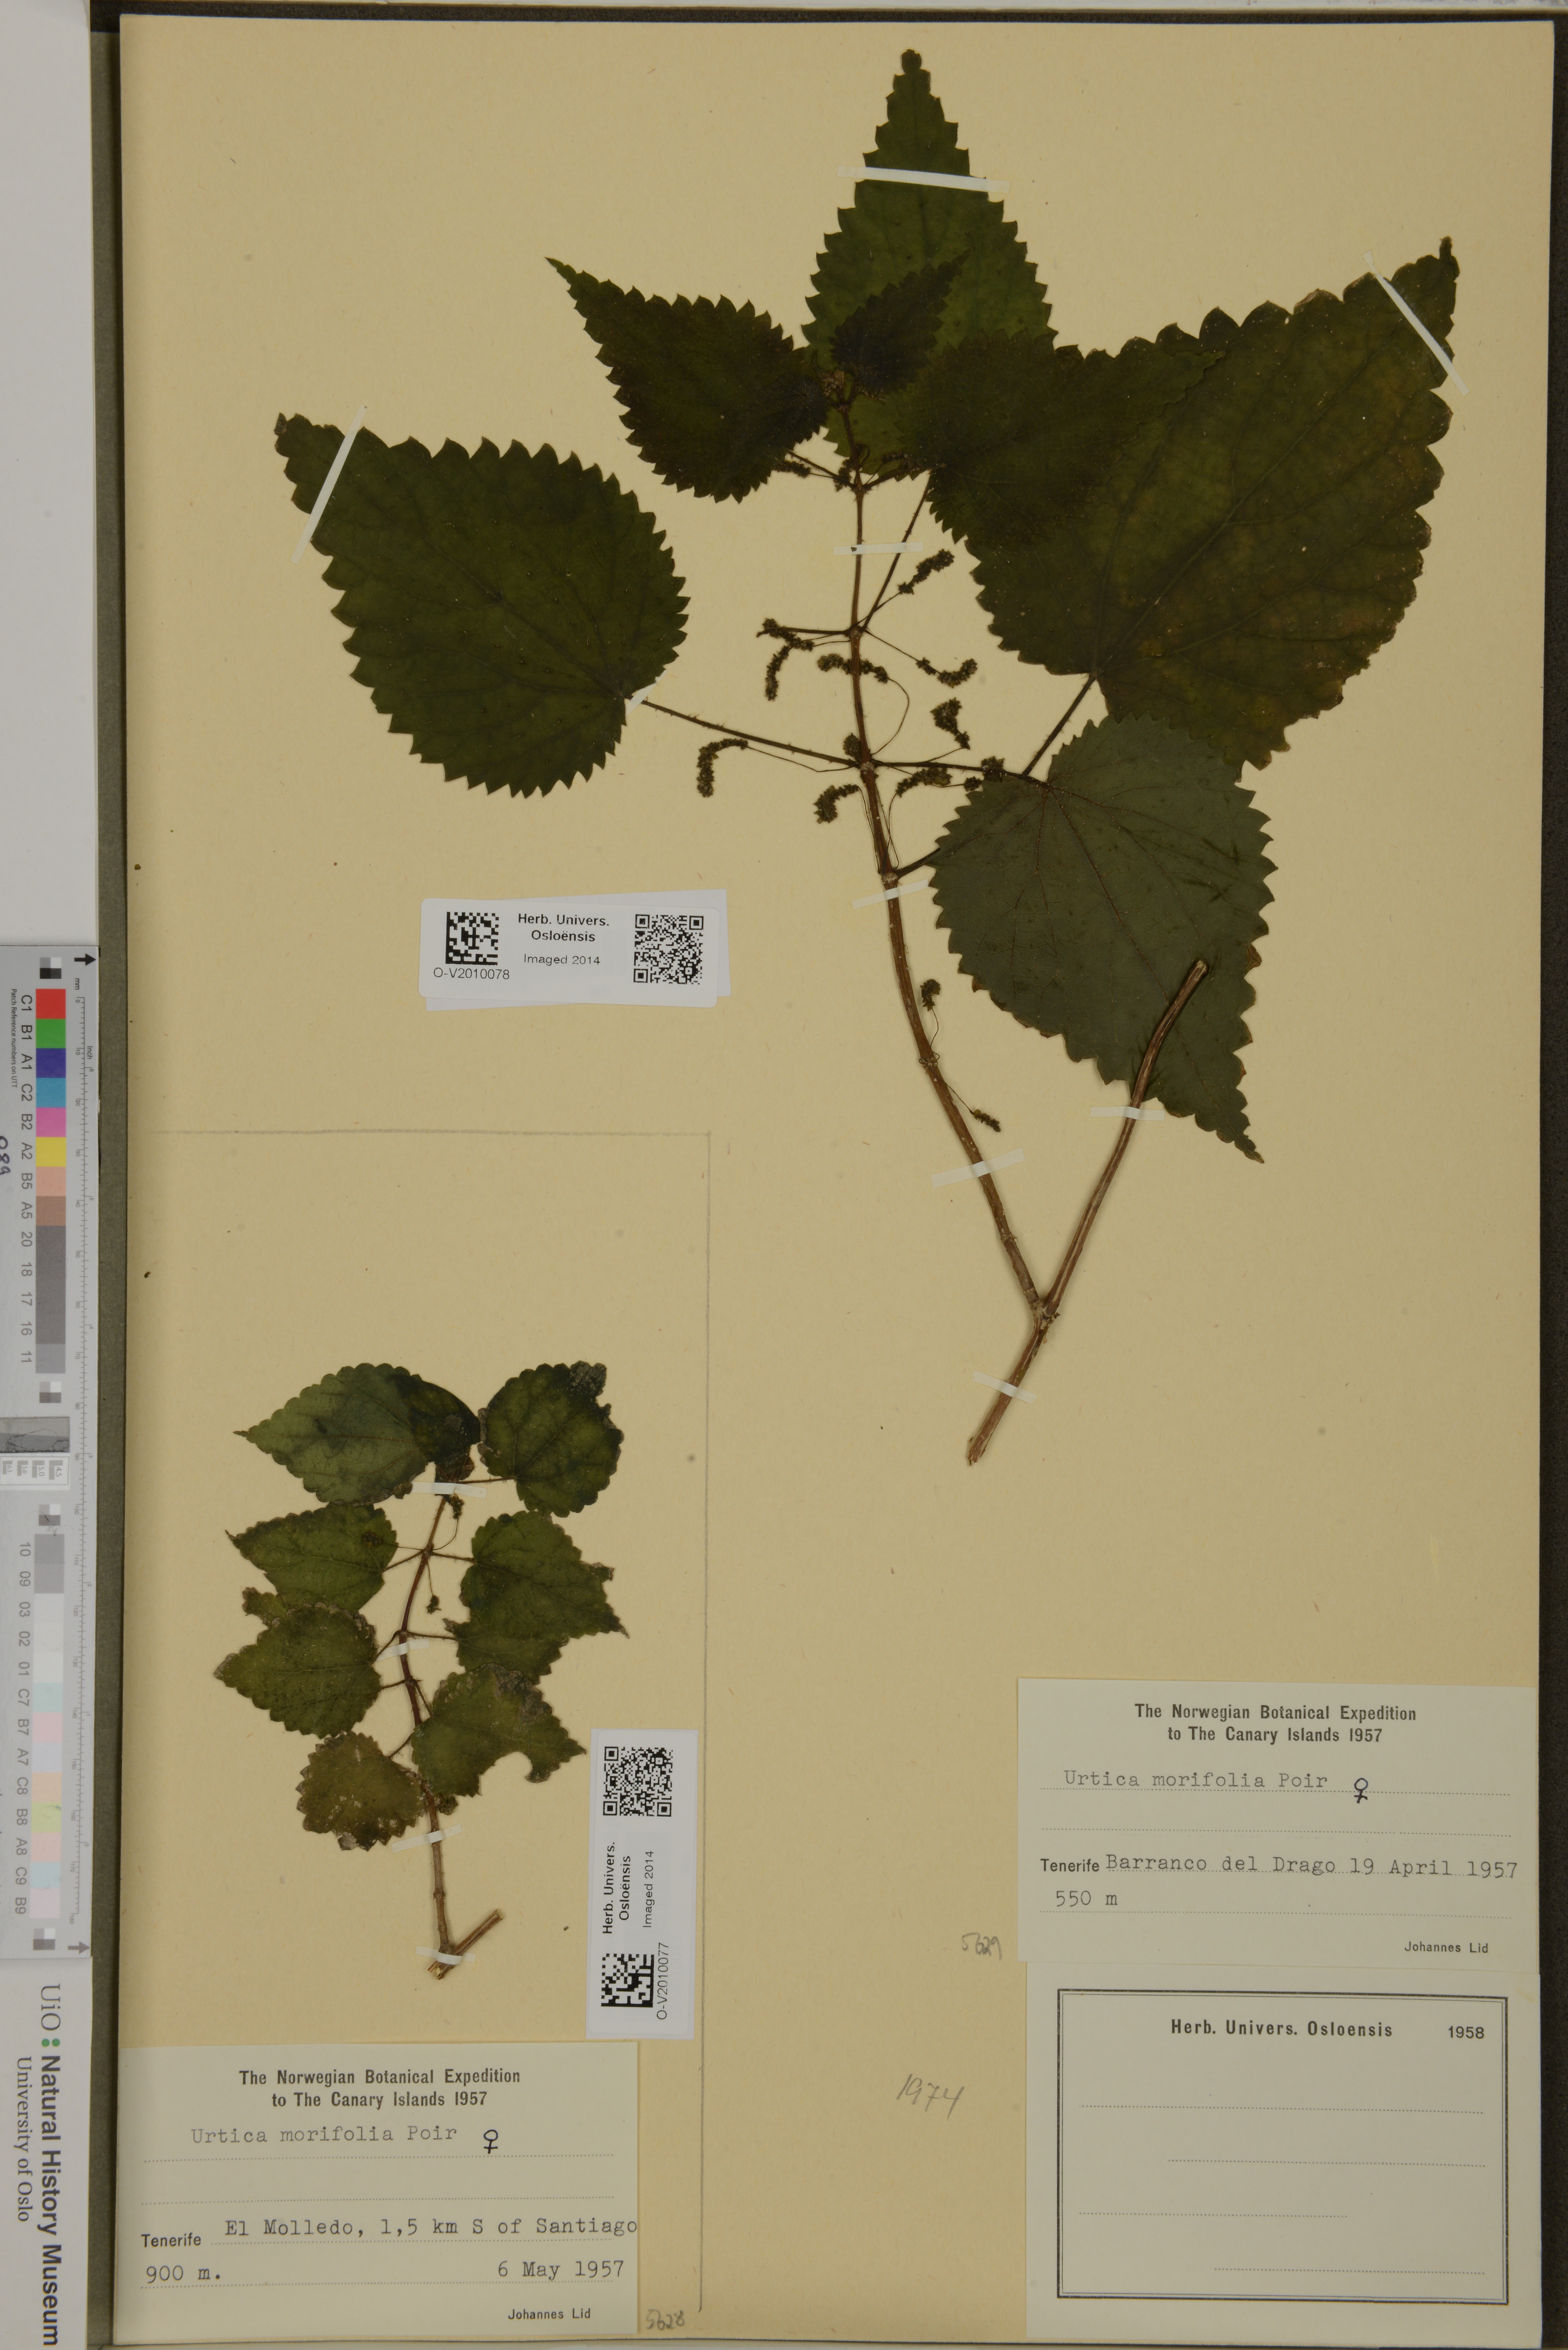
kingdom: Plantae
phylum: Tracheophyta
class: Magnoliopsida
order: Rosales
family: Urticaceae
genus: Urtica
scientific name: Urtica morifolia
